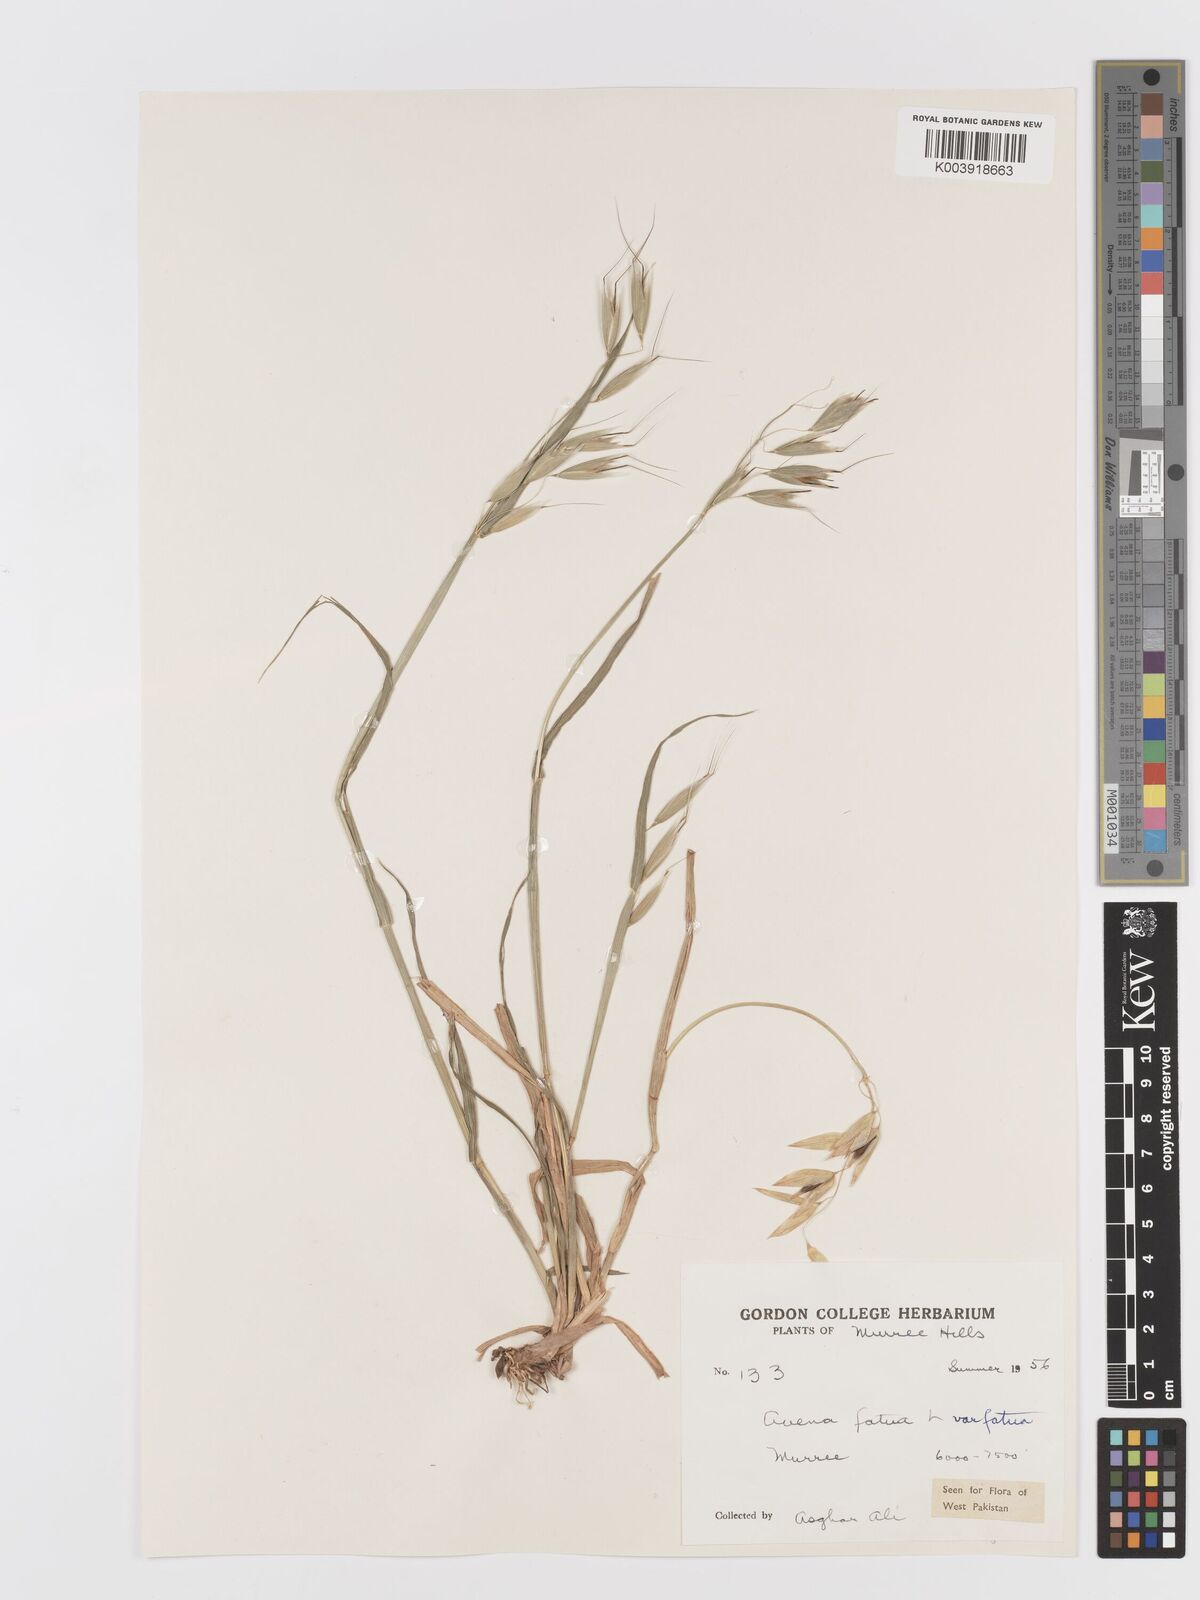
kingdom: Plantae
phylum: Tracheophyta
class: Liliopsida
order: Poales
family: Poaceae
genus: Avena
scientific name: Avena fatua
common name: Wild oat
